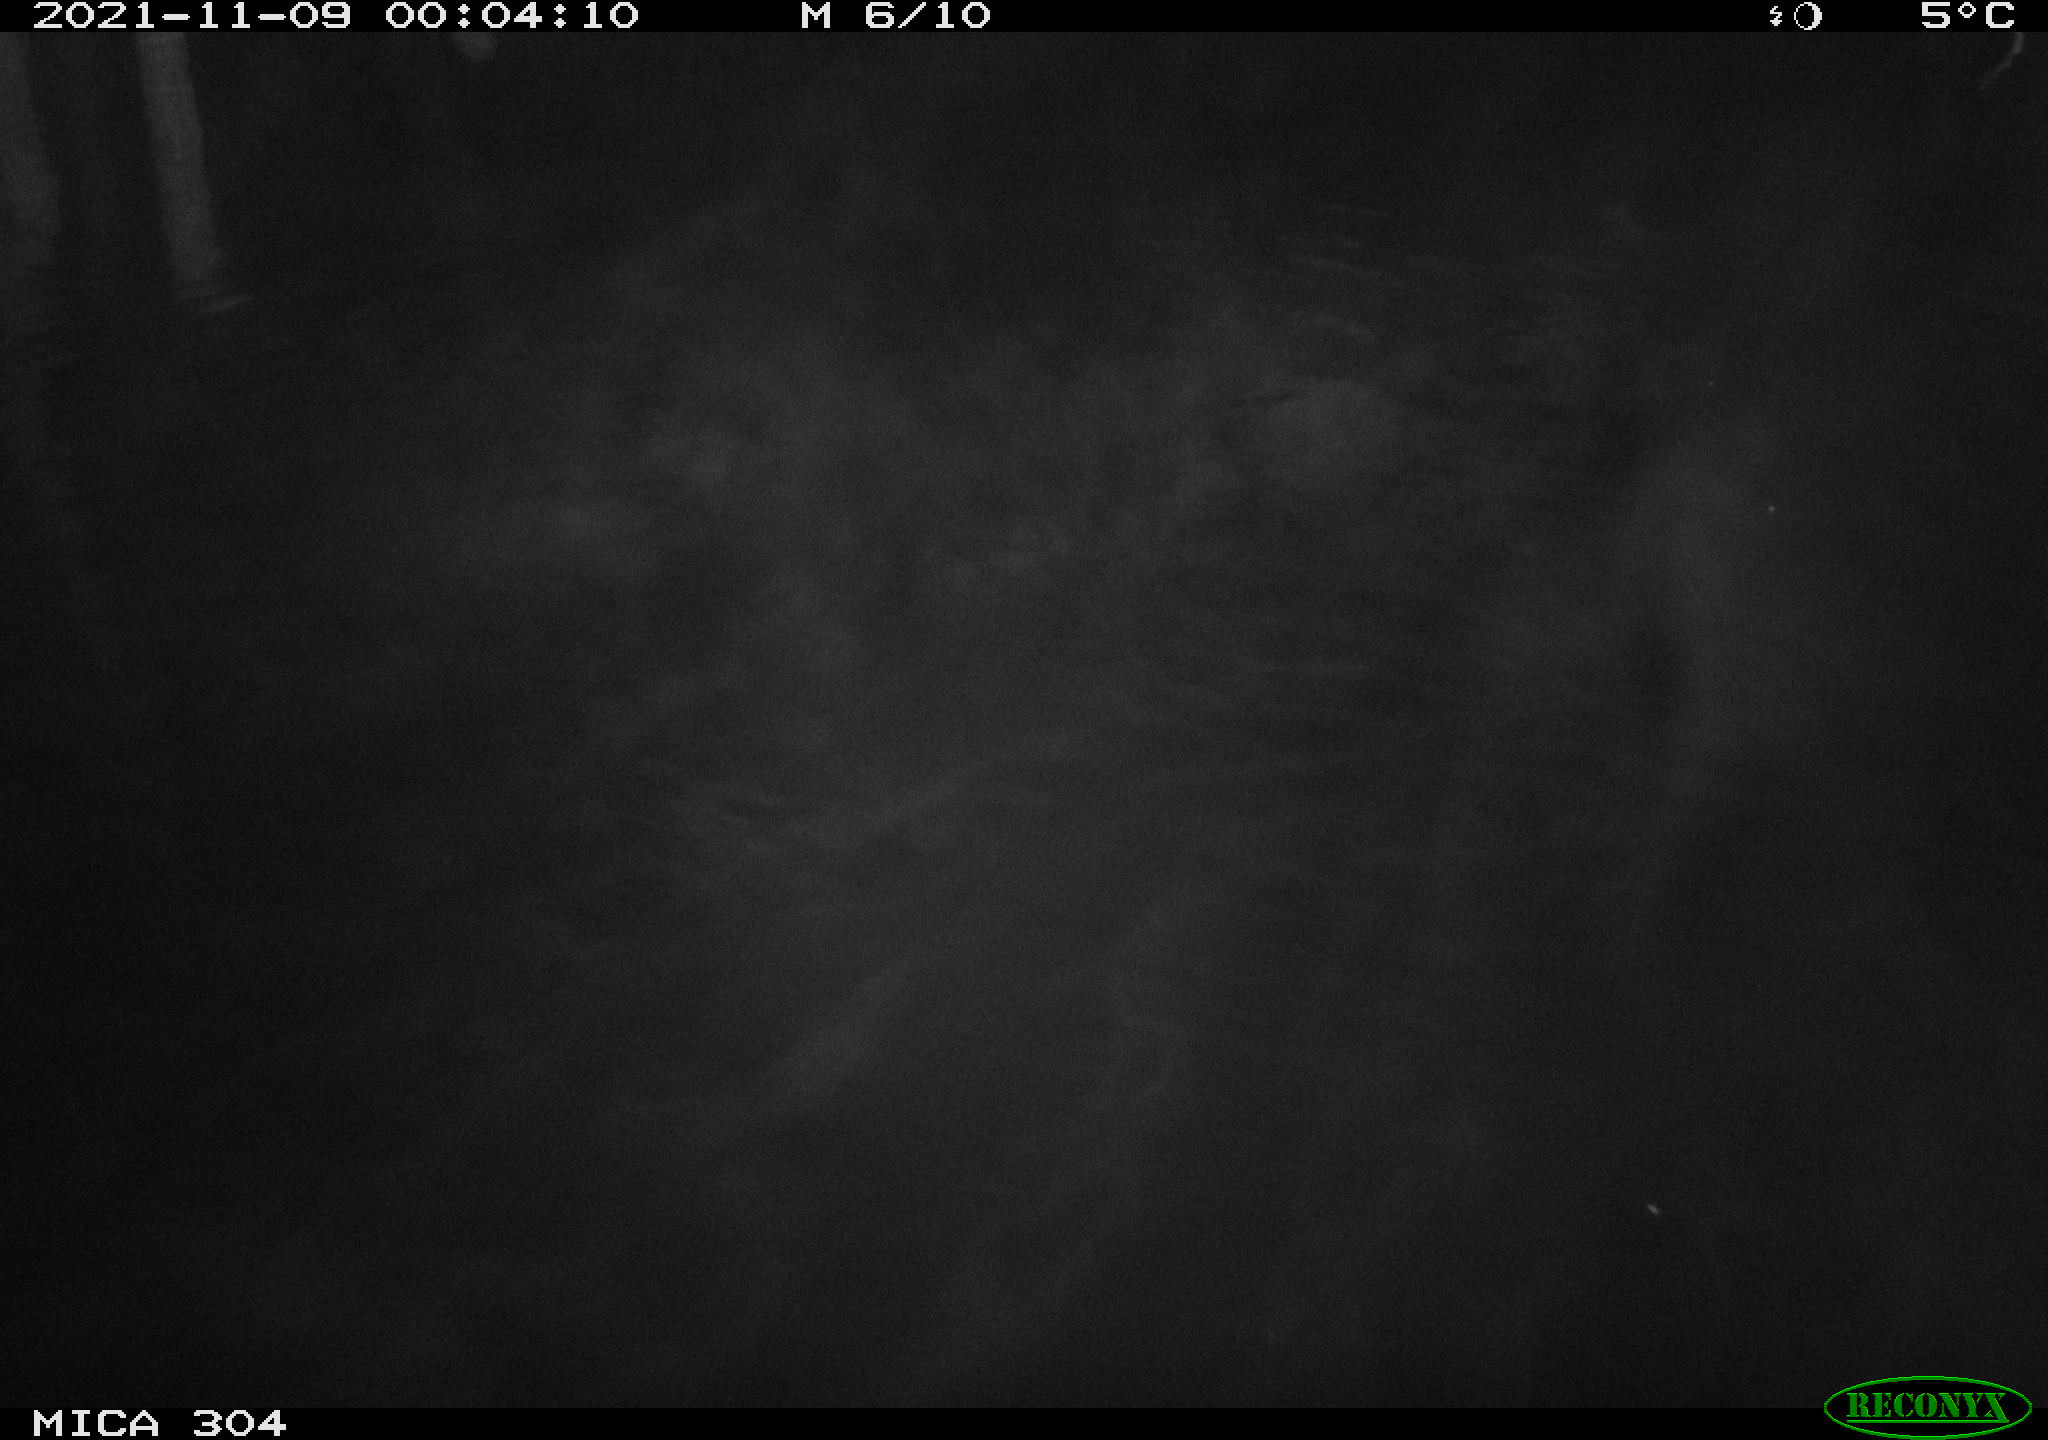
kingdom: Animalia
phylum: Chordata
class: Mammalia
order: Rodentia
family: Muridae
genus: Rattus
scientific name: Rattus norvegicus
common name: Brown rat
